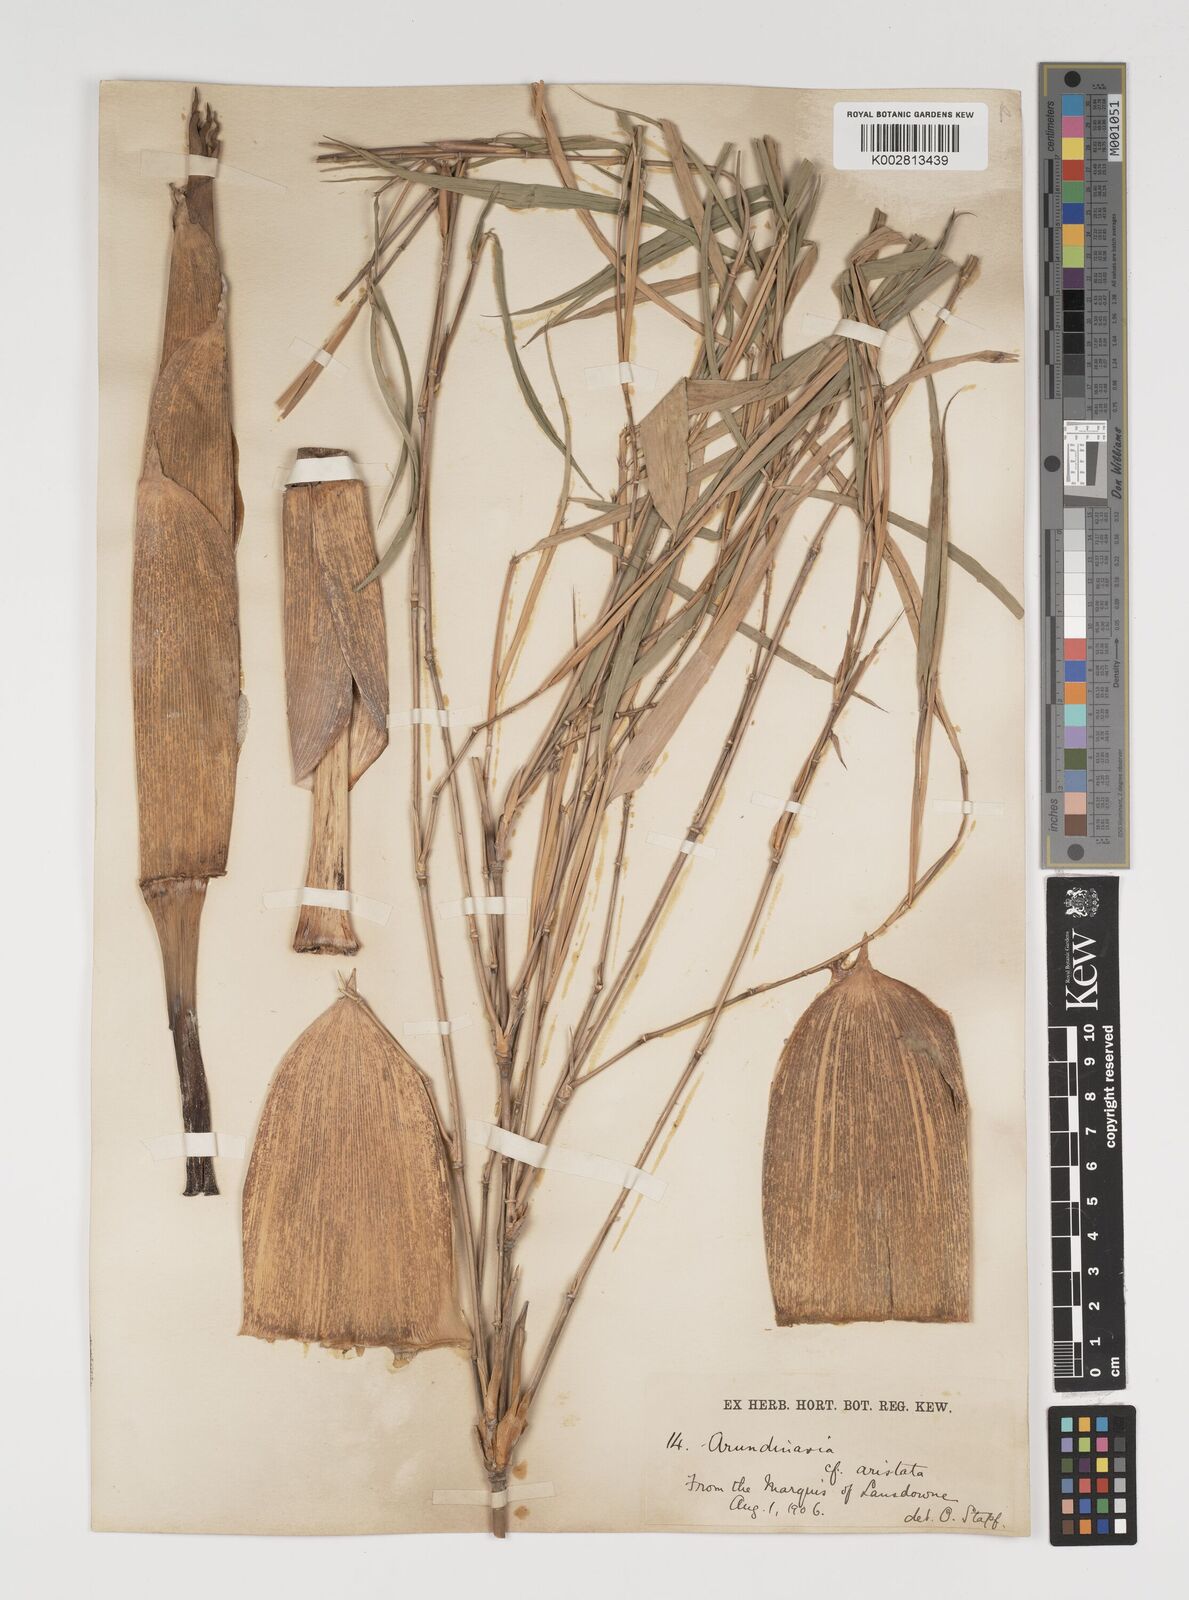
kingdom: Plantae
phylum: Tracheophyta
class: Liliopsida
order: Poales
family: Poaceae
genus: Thamnocalamus
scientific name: Thamnocalamus spathiflorus
